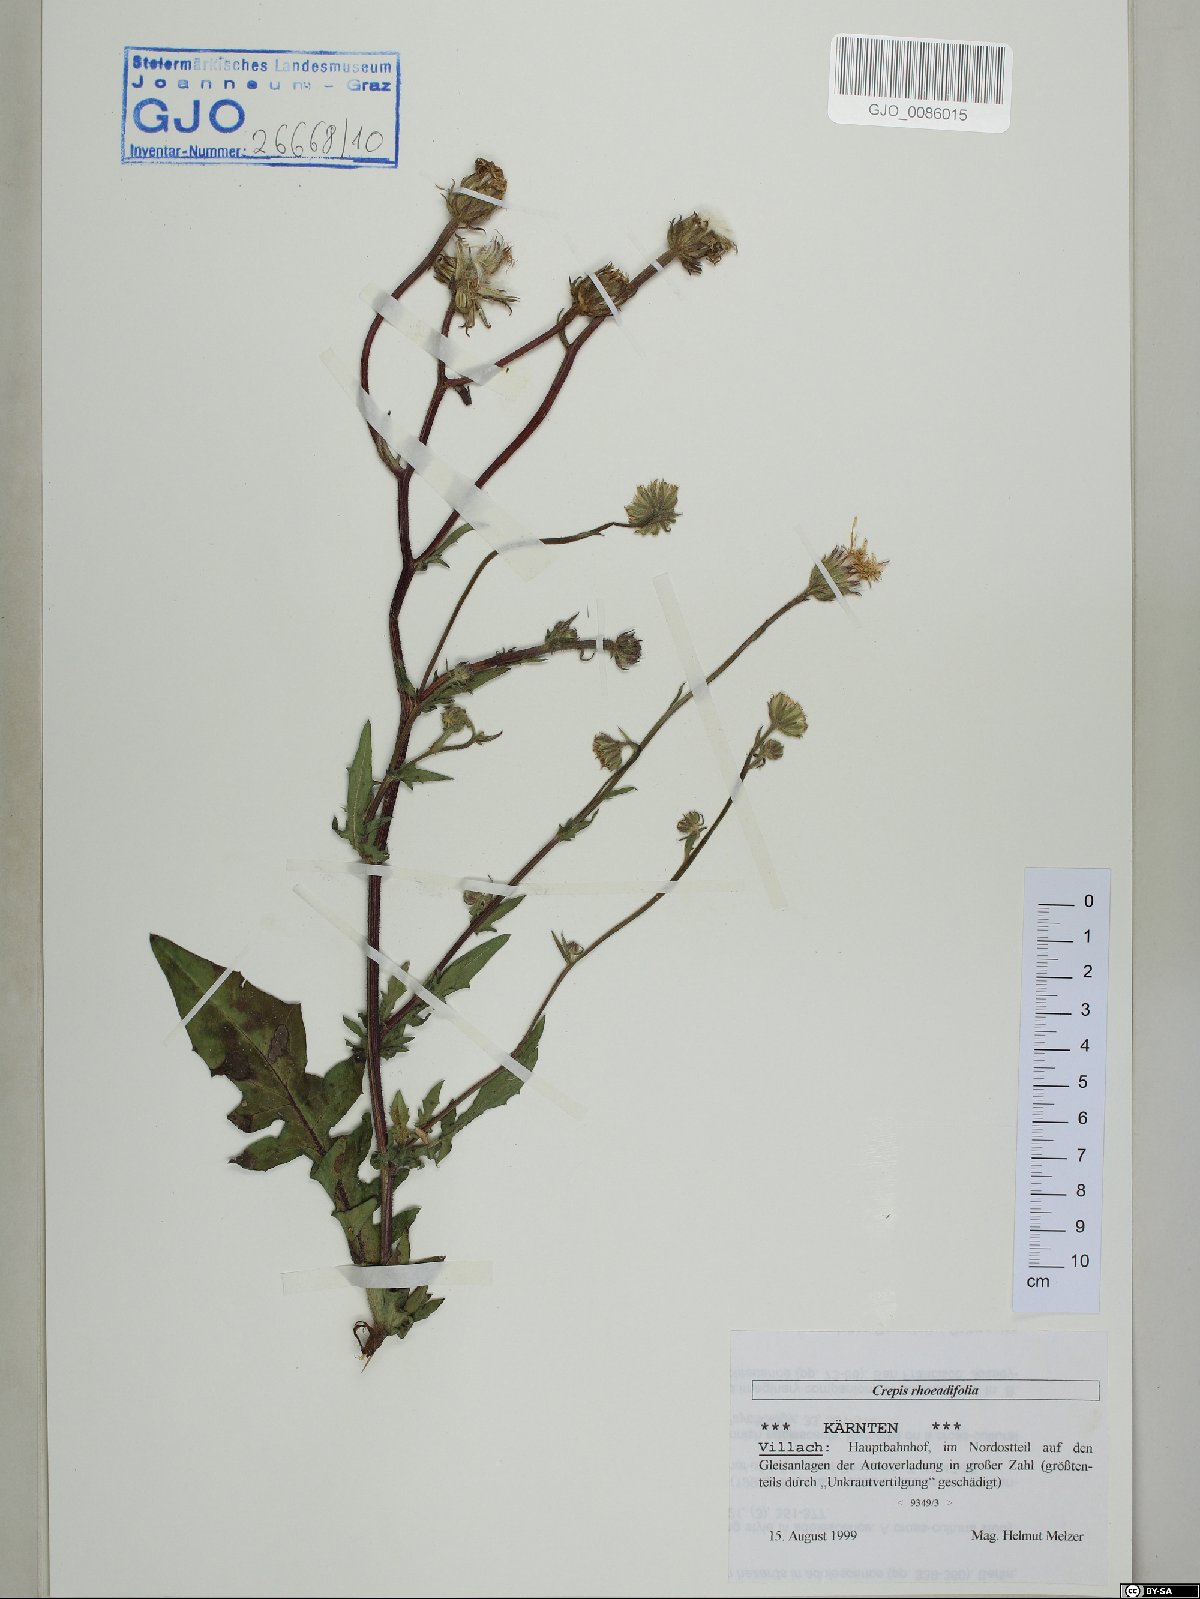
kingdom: Plantae
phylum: Tracheophyta
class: Magnoliopsida
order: Asterales
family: Asteraceae
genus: Crepis
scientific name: Crepis foetida
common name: Stinking hawk's-beard
